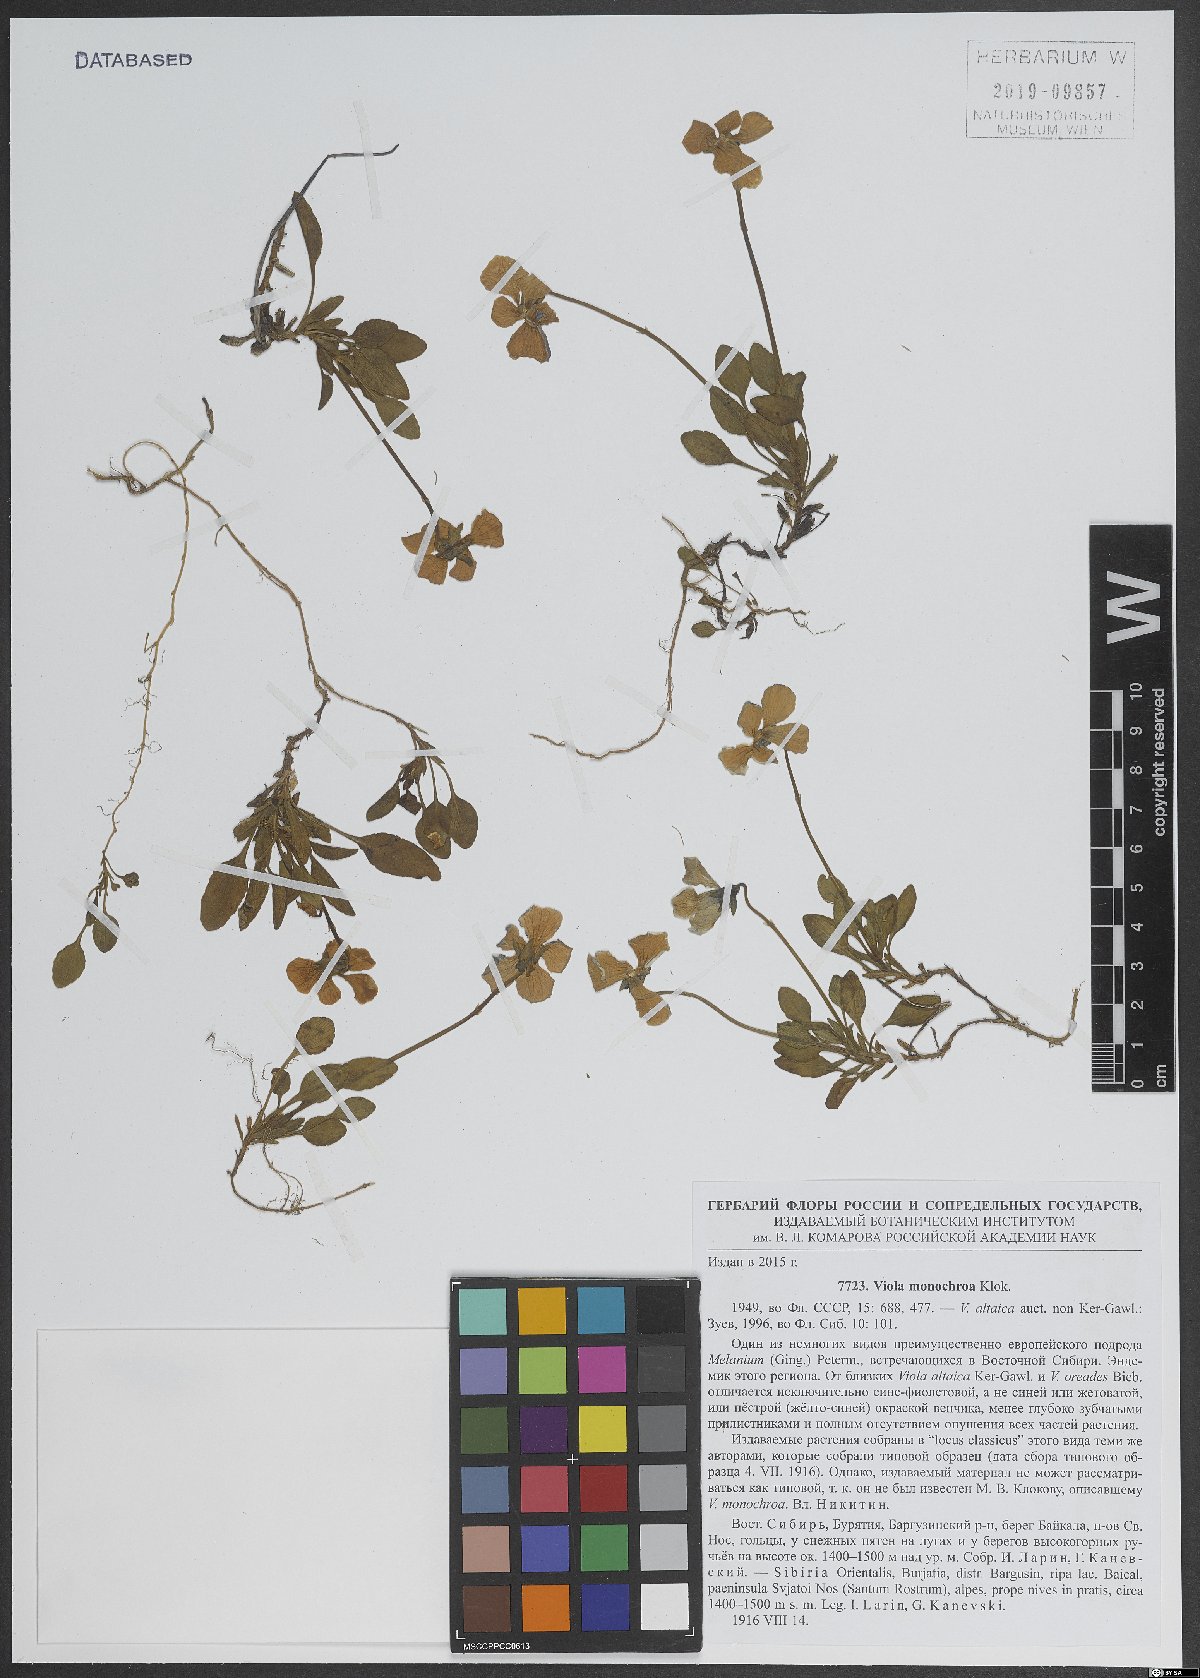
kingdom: Plantae
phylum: Tracheophyta
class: Magnoliopsida
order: Malpighiales
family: Violaceae
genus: Viola
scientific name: Viola altaica
